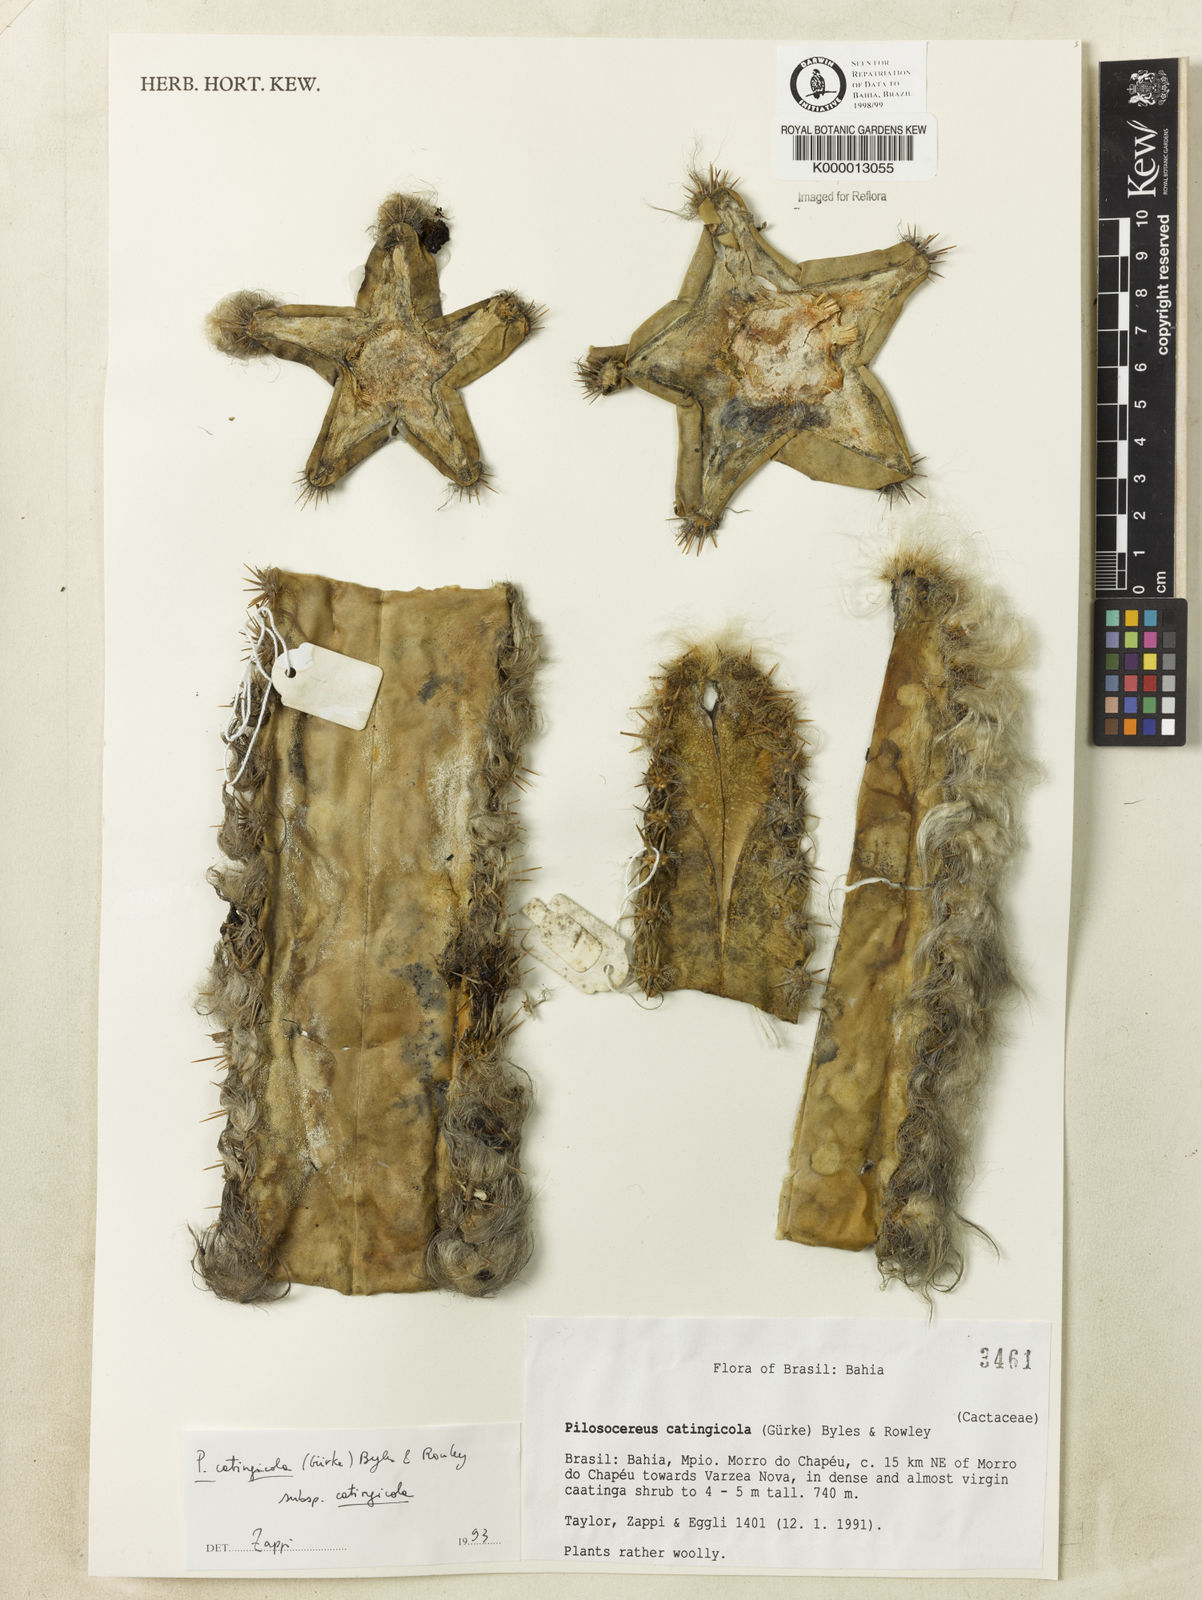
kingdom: Plantae
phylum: Tracheophyta
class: Magnoliopsida
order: Caryophyllales
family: Cactaceae
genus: Pilosocereus
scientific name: Pilosocereus catingicola
